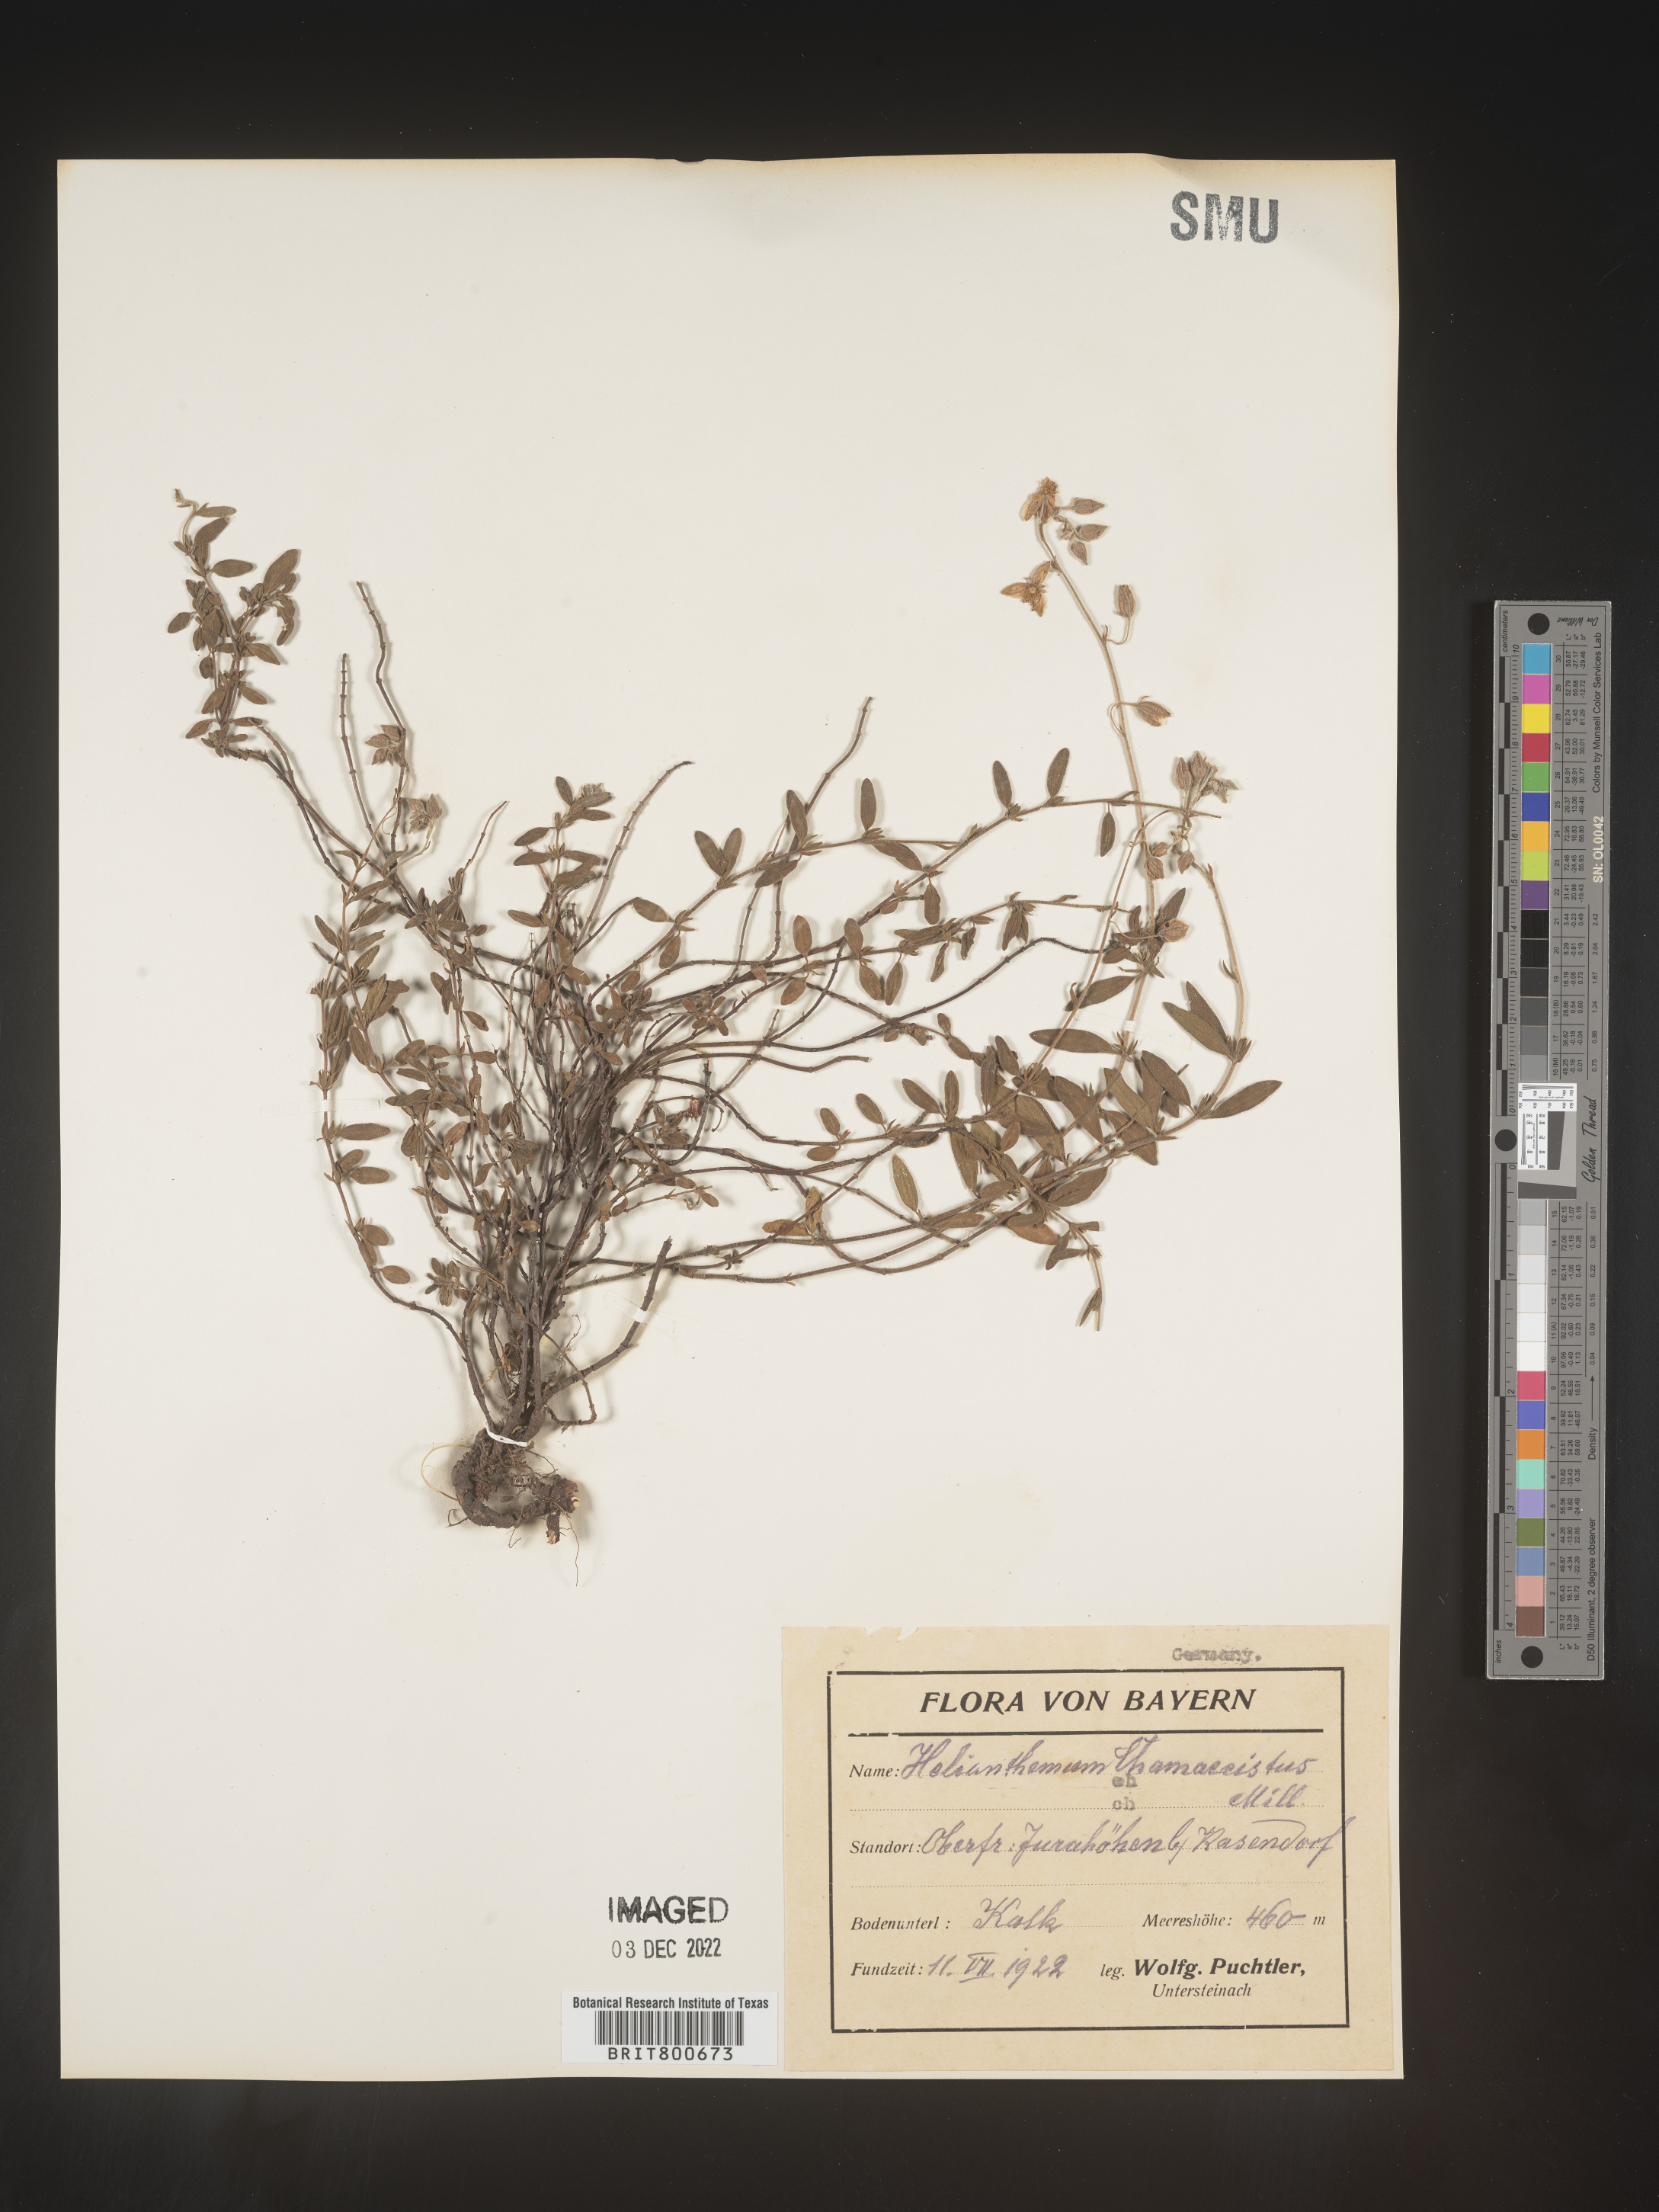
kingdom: Plantae
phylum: Tracheophyta
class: Magnoliopsida
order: Malvales
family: Cistaceae
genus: Helianthemum
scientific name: Helianthemum
